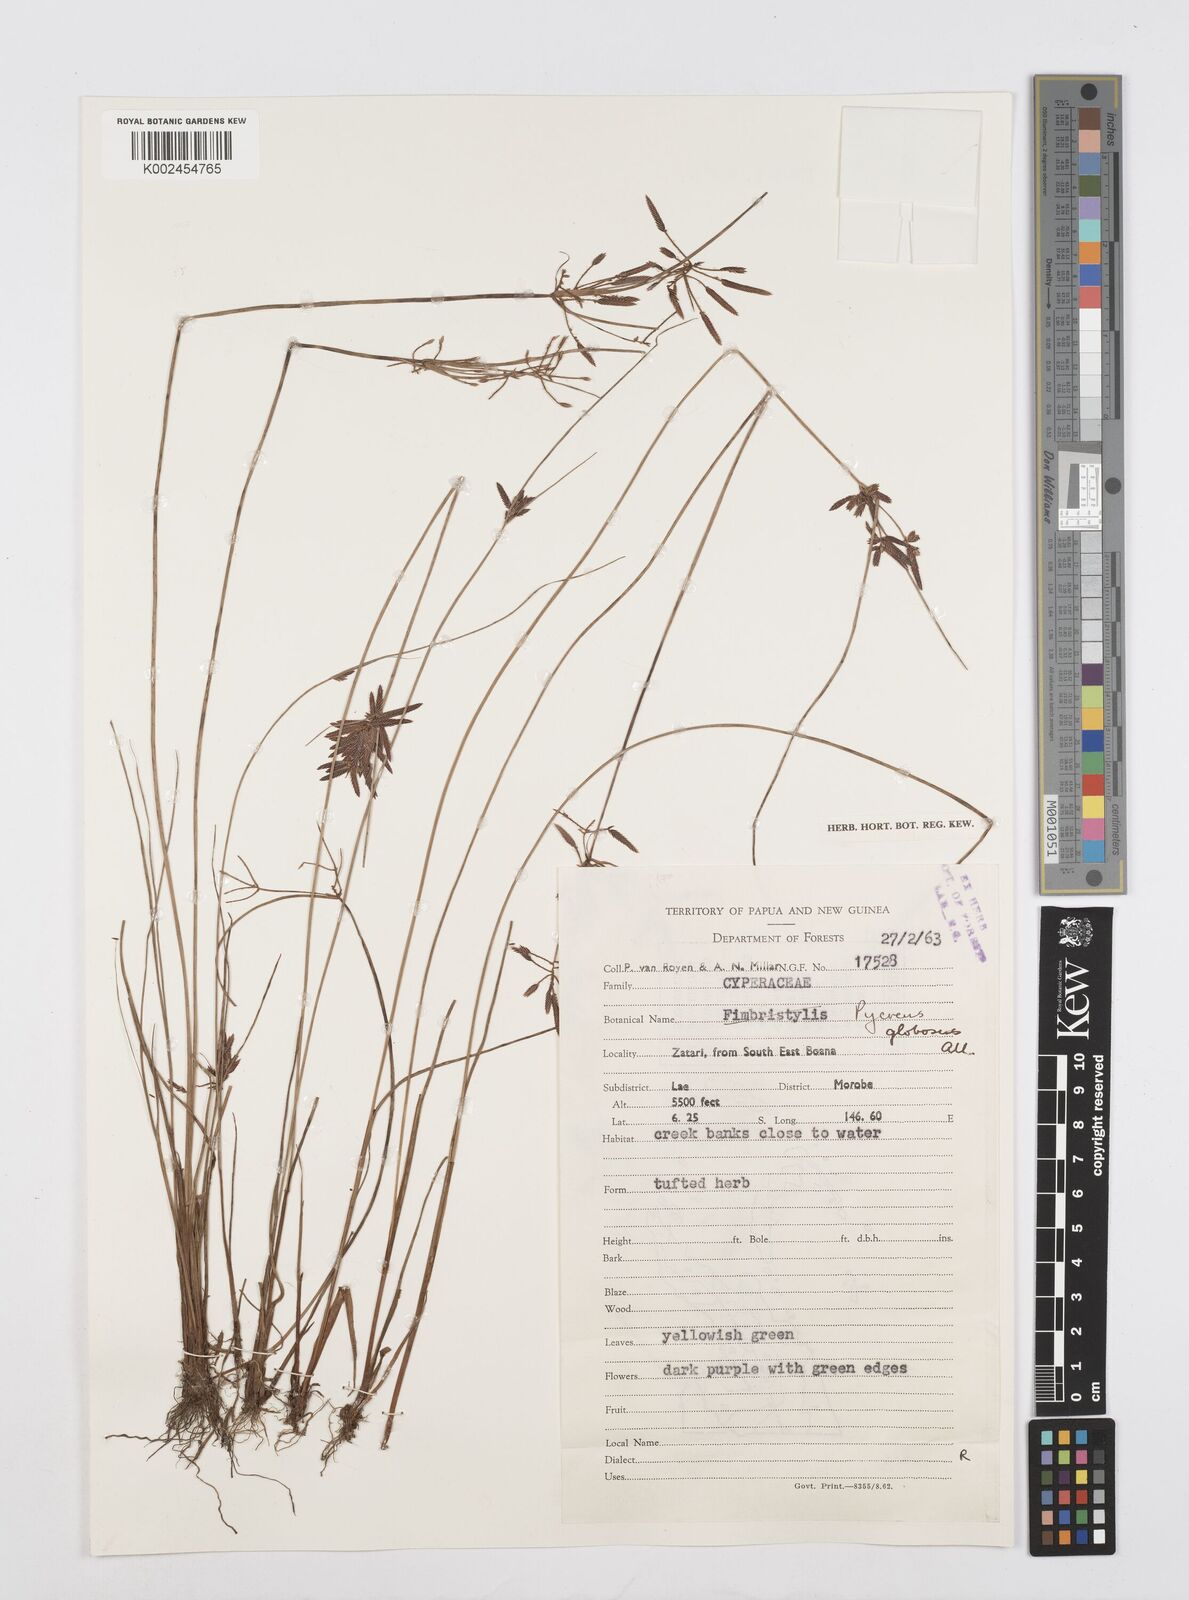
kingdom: Plantae
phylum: Tracheophyta
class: Liliopsida
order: Poales
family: Cyperaceae
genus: Cyperus
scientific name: Cyperus flavidus
